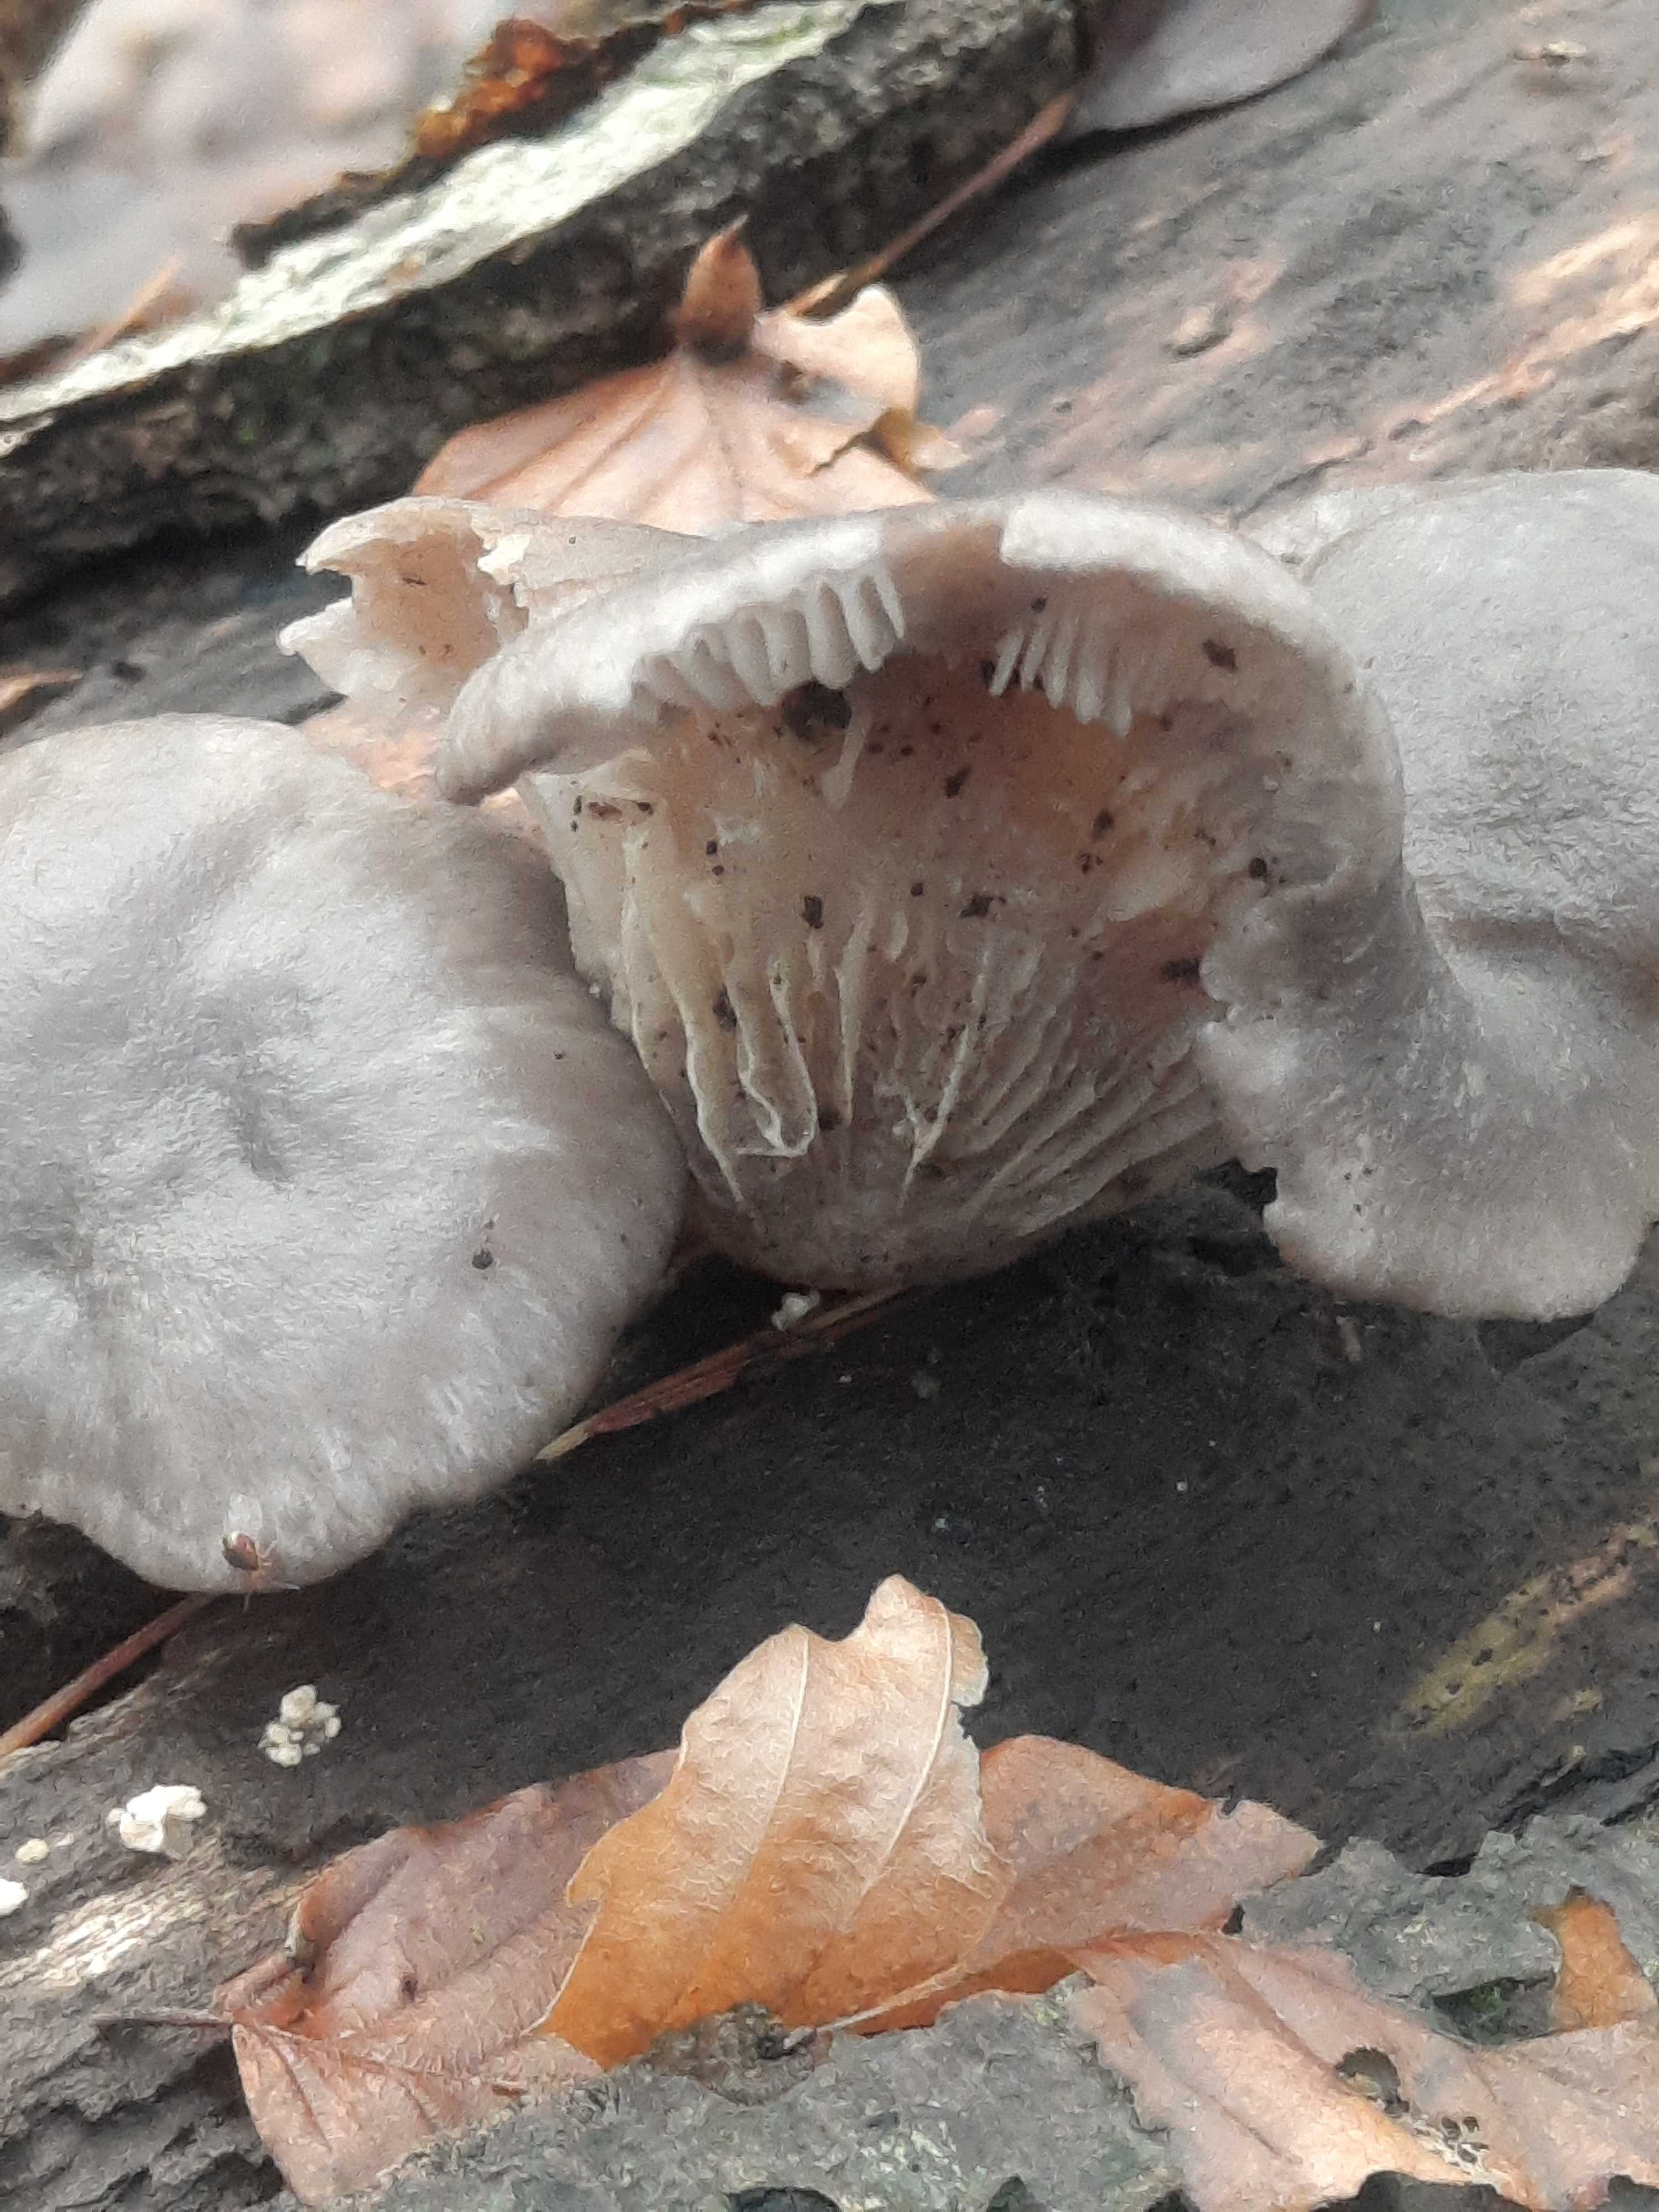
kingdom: Fungi
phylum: Basidiomycota
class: Agaricomycetes
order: Agaricales
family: Pleurotaceae
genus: Pleurotus
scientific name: Pleurotus ostreatus
